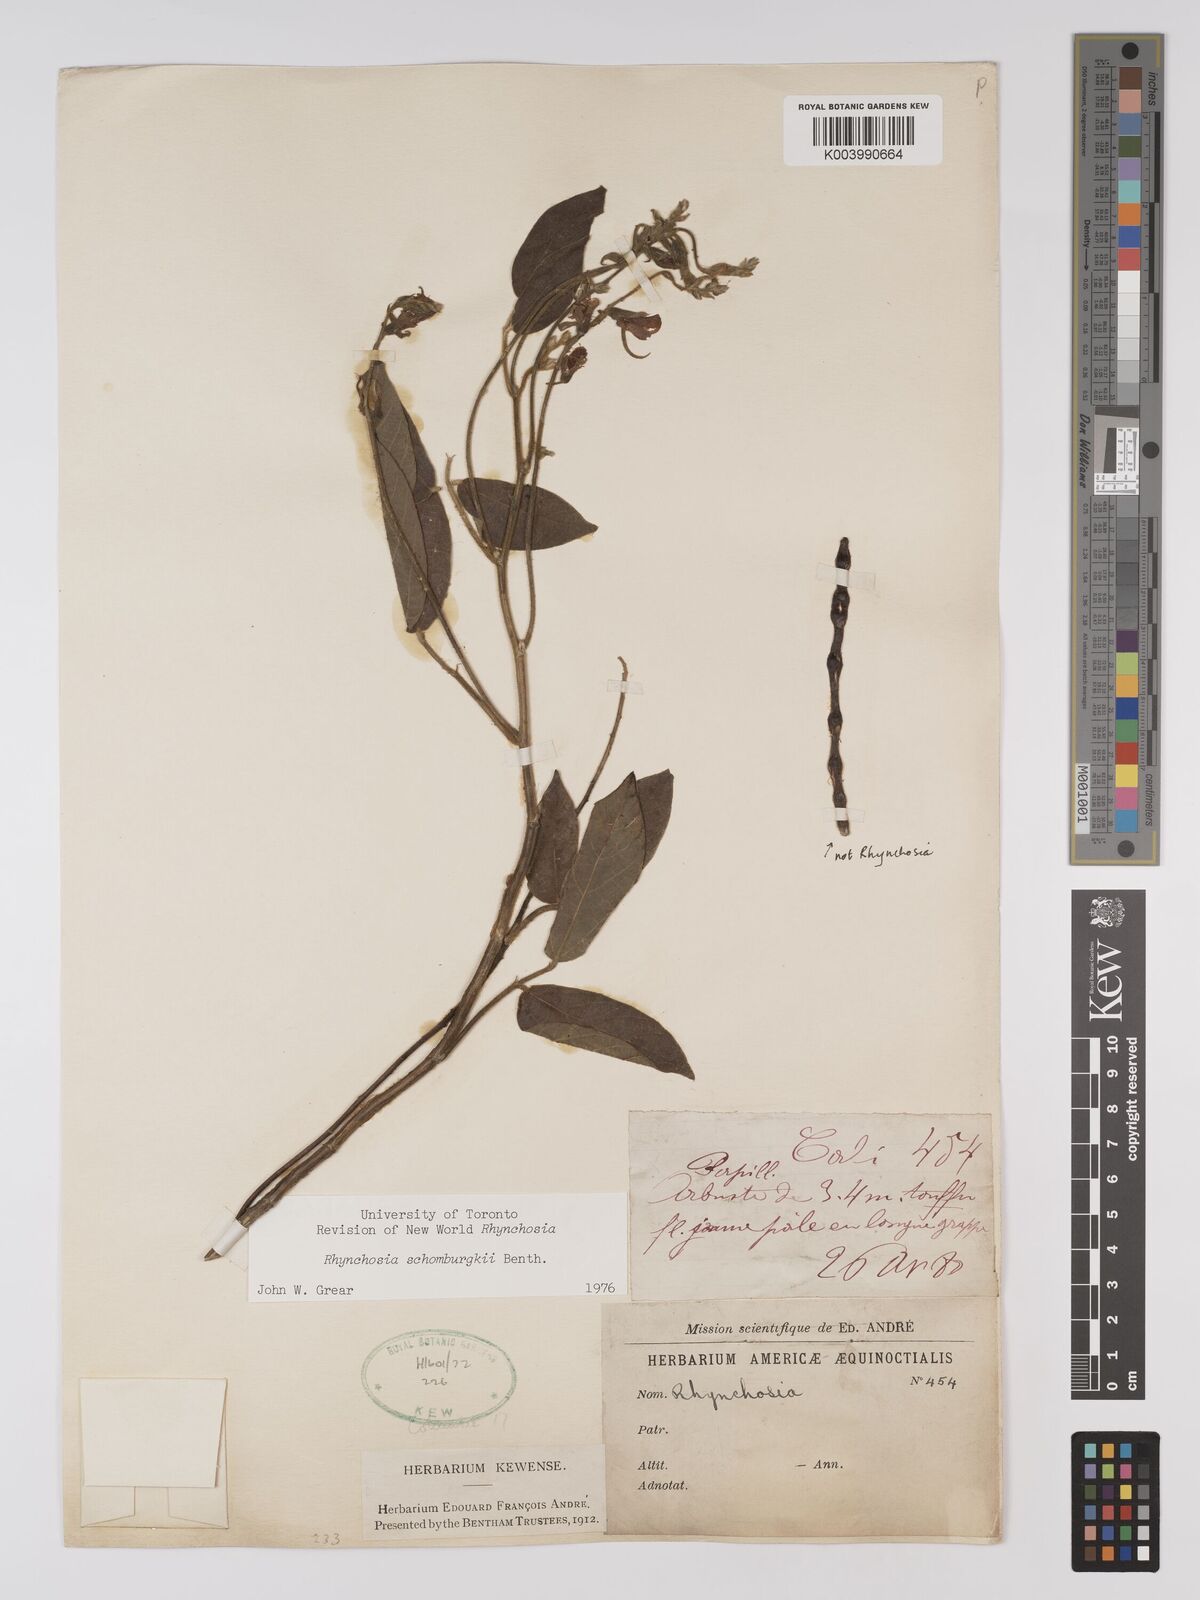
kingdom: Plantae
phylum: Tracheophyta
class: Magnoliopsida
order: Fabales
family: Fabaceae
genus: Rhynchosia
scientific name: Rhynchosia schomburgkii
